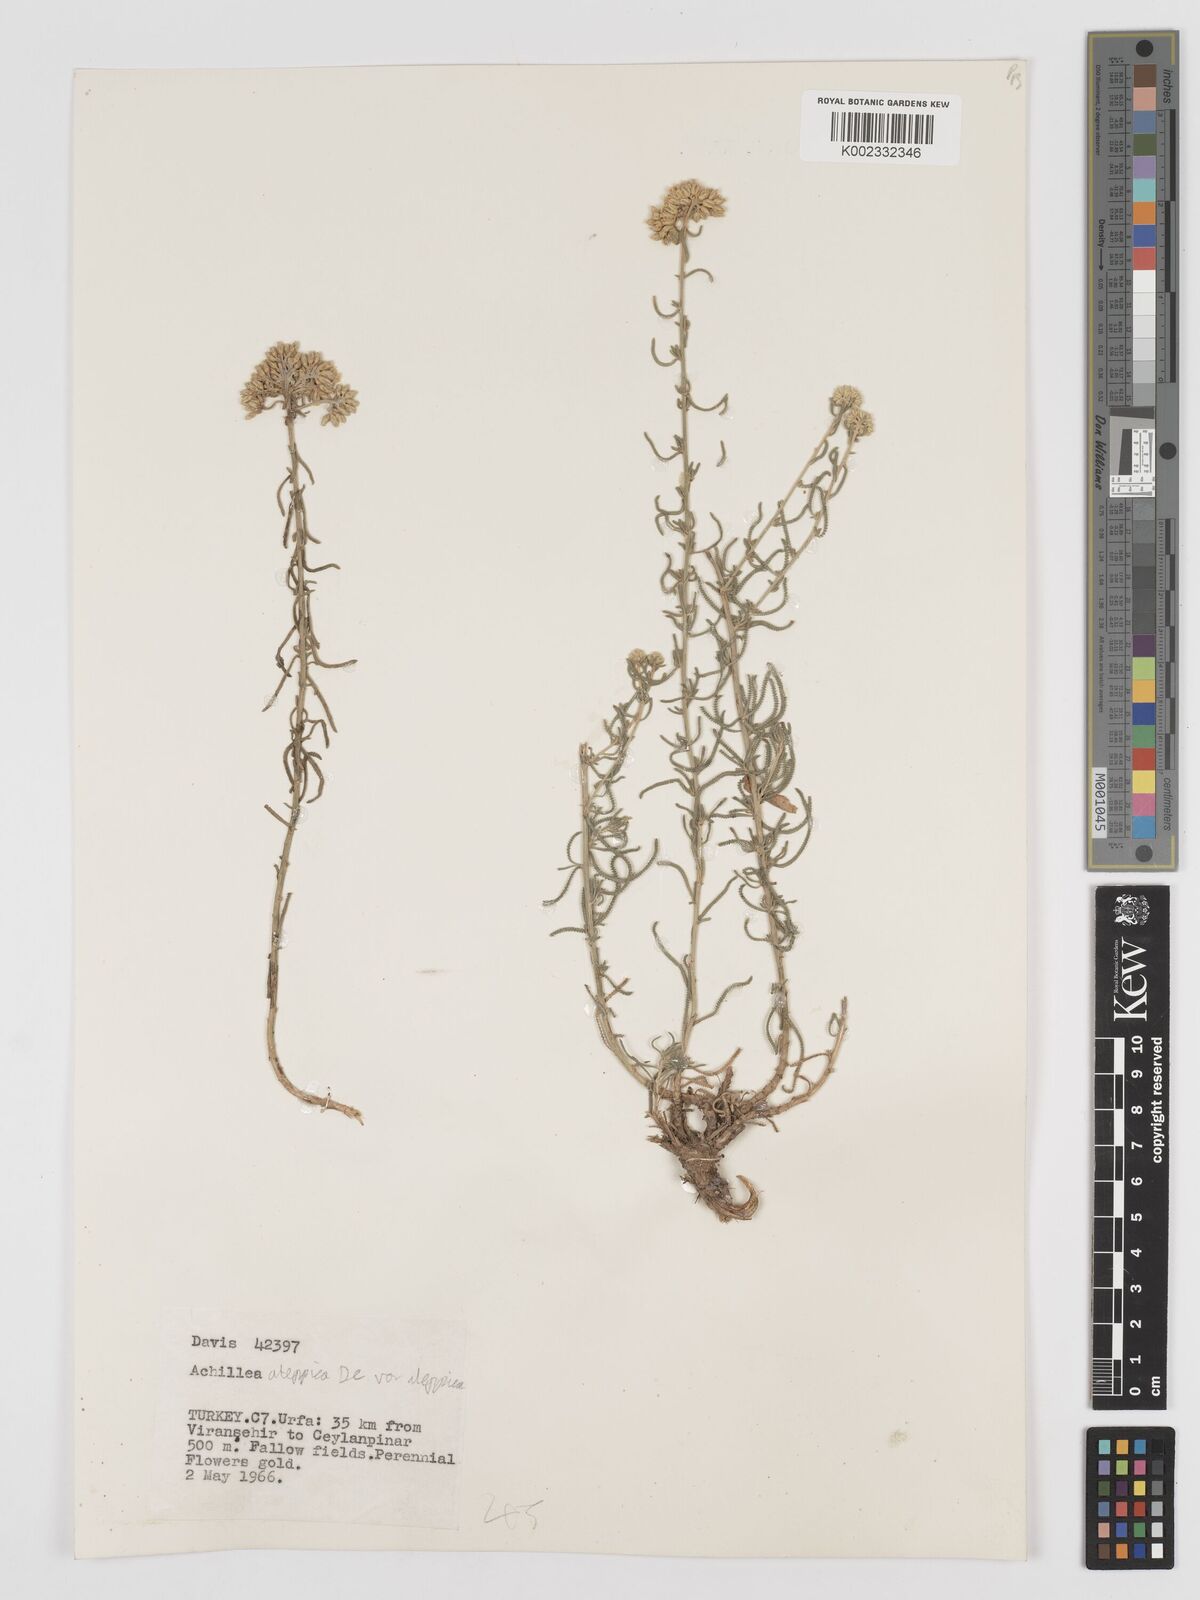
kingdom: Plantae
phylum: Tracheophyta
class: Magnoliopsida
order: Asterales
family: Asteraceae
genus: Achillea
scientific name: Achillea aleppica
